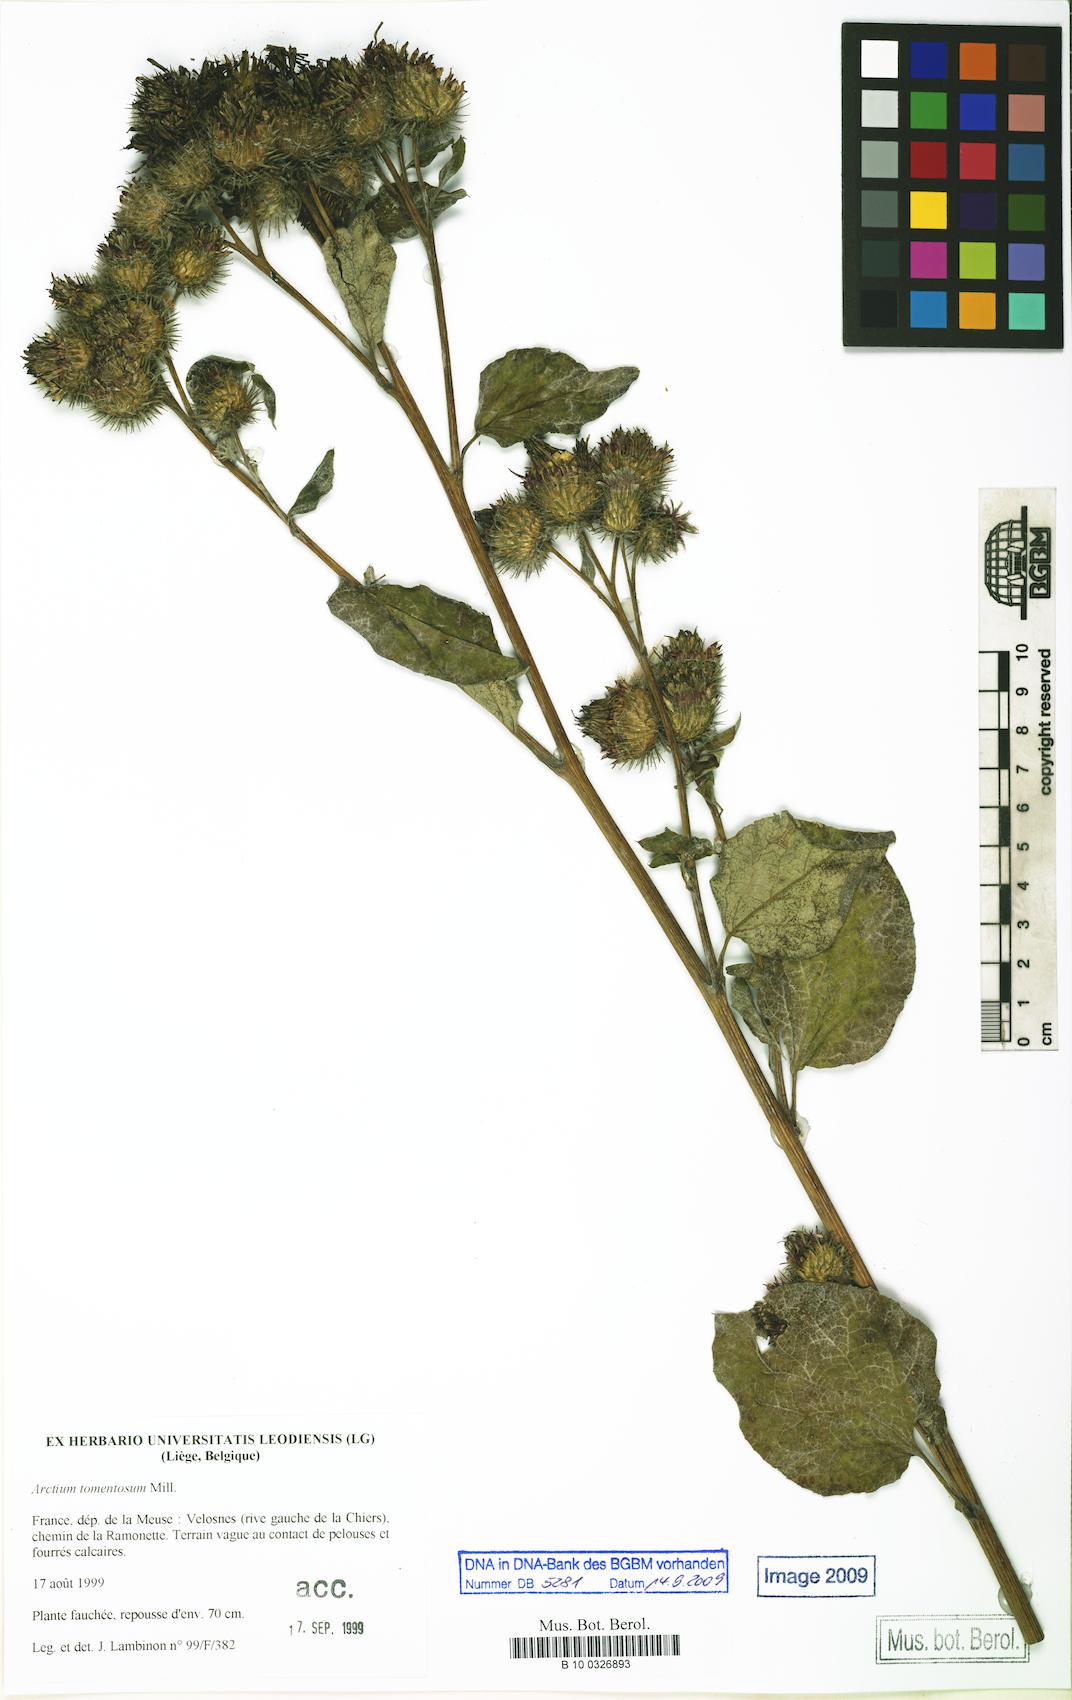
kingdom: Plantae
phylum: Tracheophyta
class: Magnoliopsida
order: Asterales
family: Asteraceae
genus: Arctium
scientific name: Arctium tomentosum
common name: Woolly burdock
